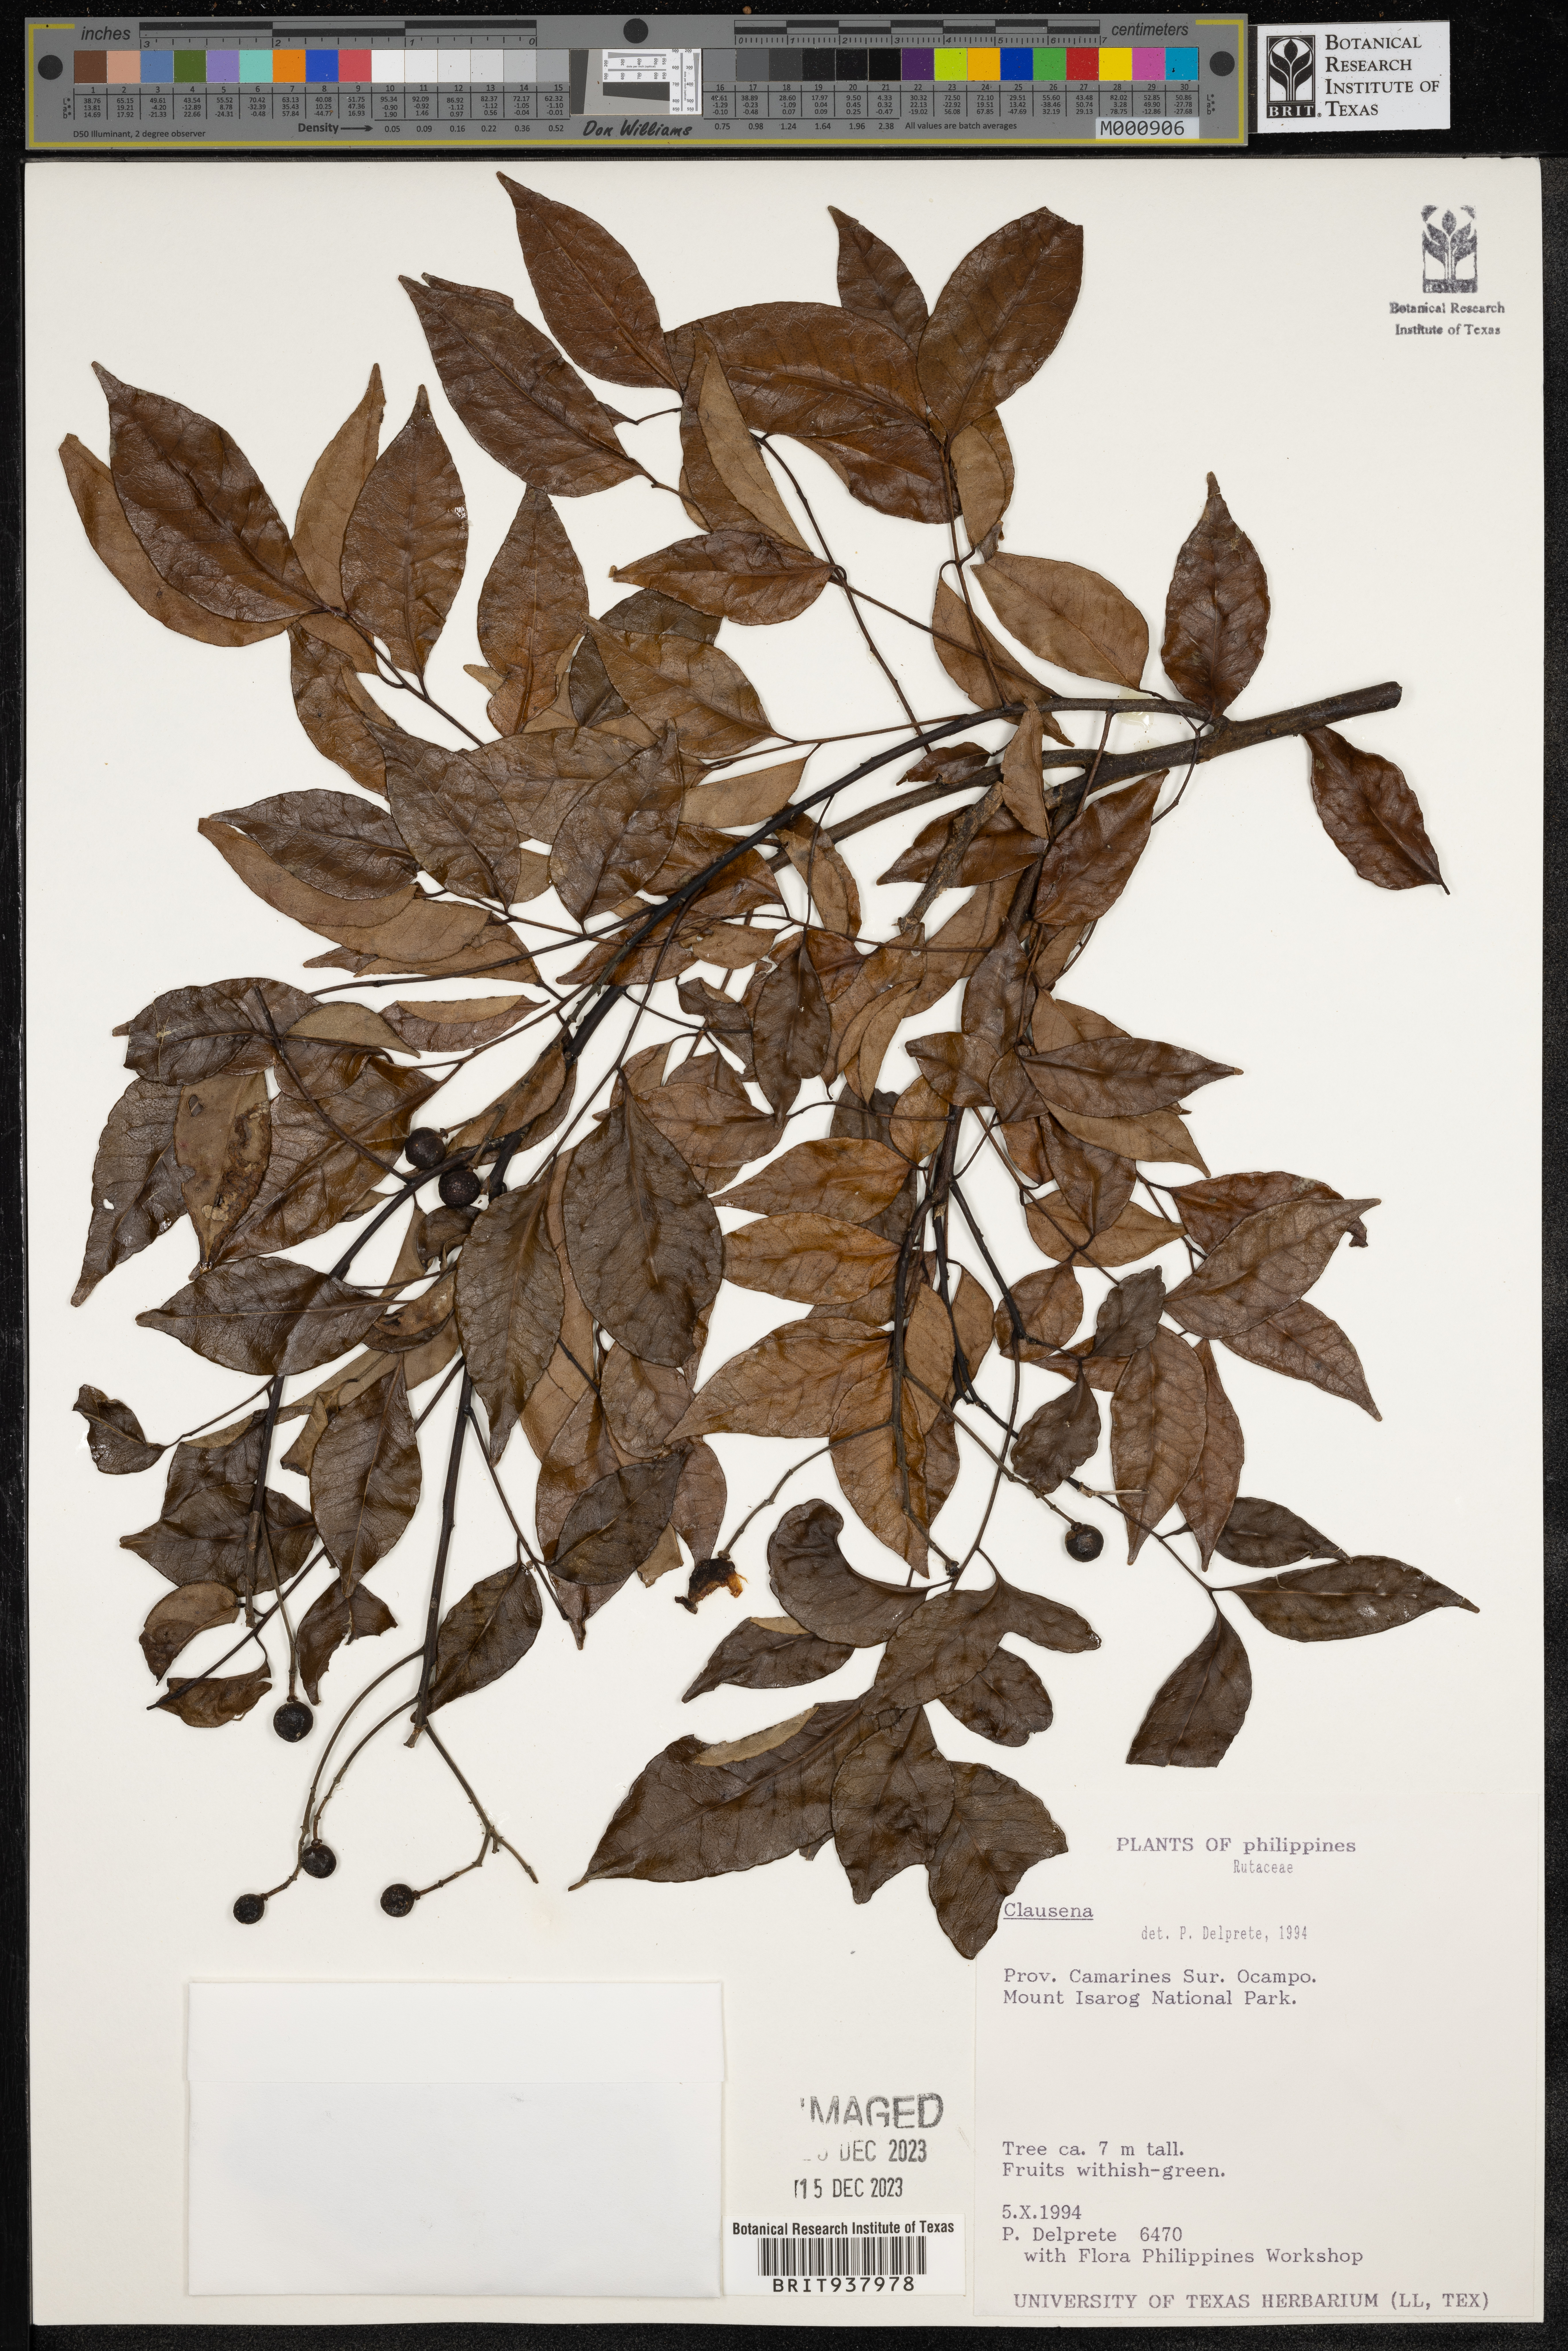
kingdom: Plantae
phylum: Tracheophyta
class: Magnoliopsida
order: Sapindales
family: Rutaceae
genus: Clausena
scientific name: Clausena
